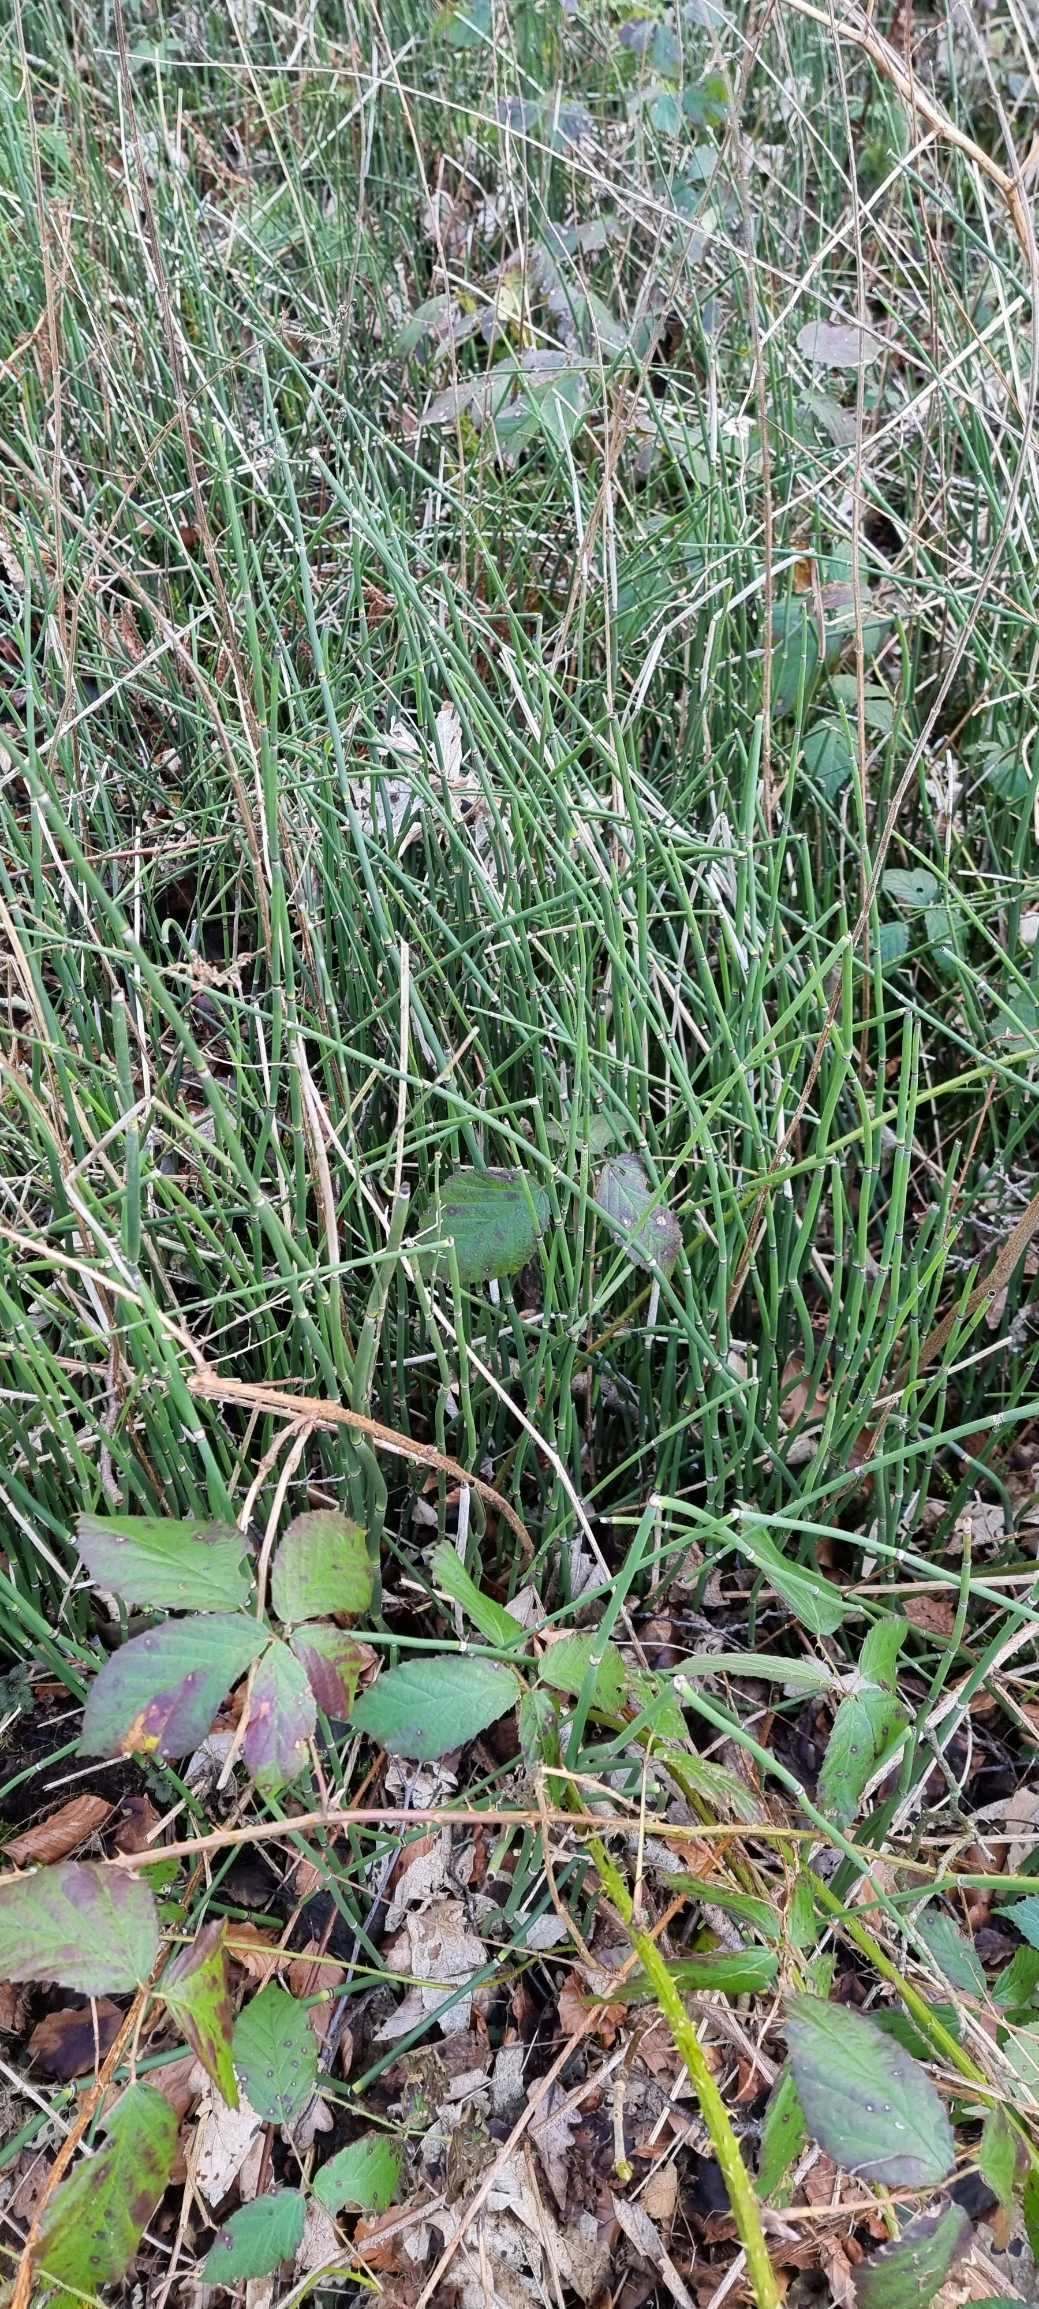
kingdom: Plantae
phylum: Tracheophyta
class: Polypodiopsida
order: Equisetales
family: Equisetaceae
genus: Equisetum
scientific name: Equisetum hyemale
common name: Skavgræs
